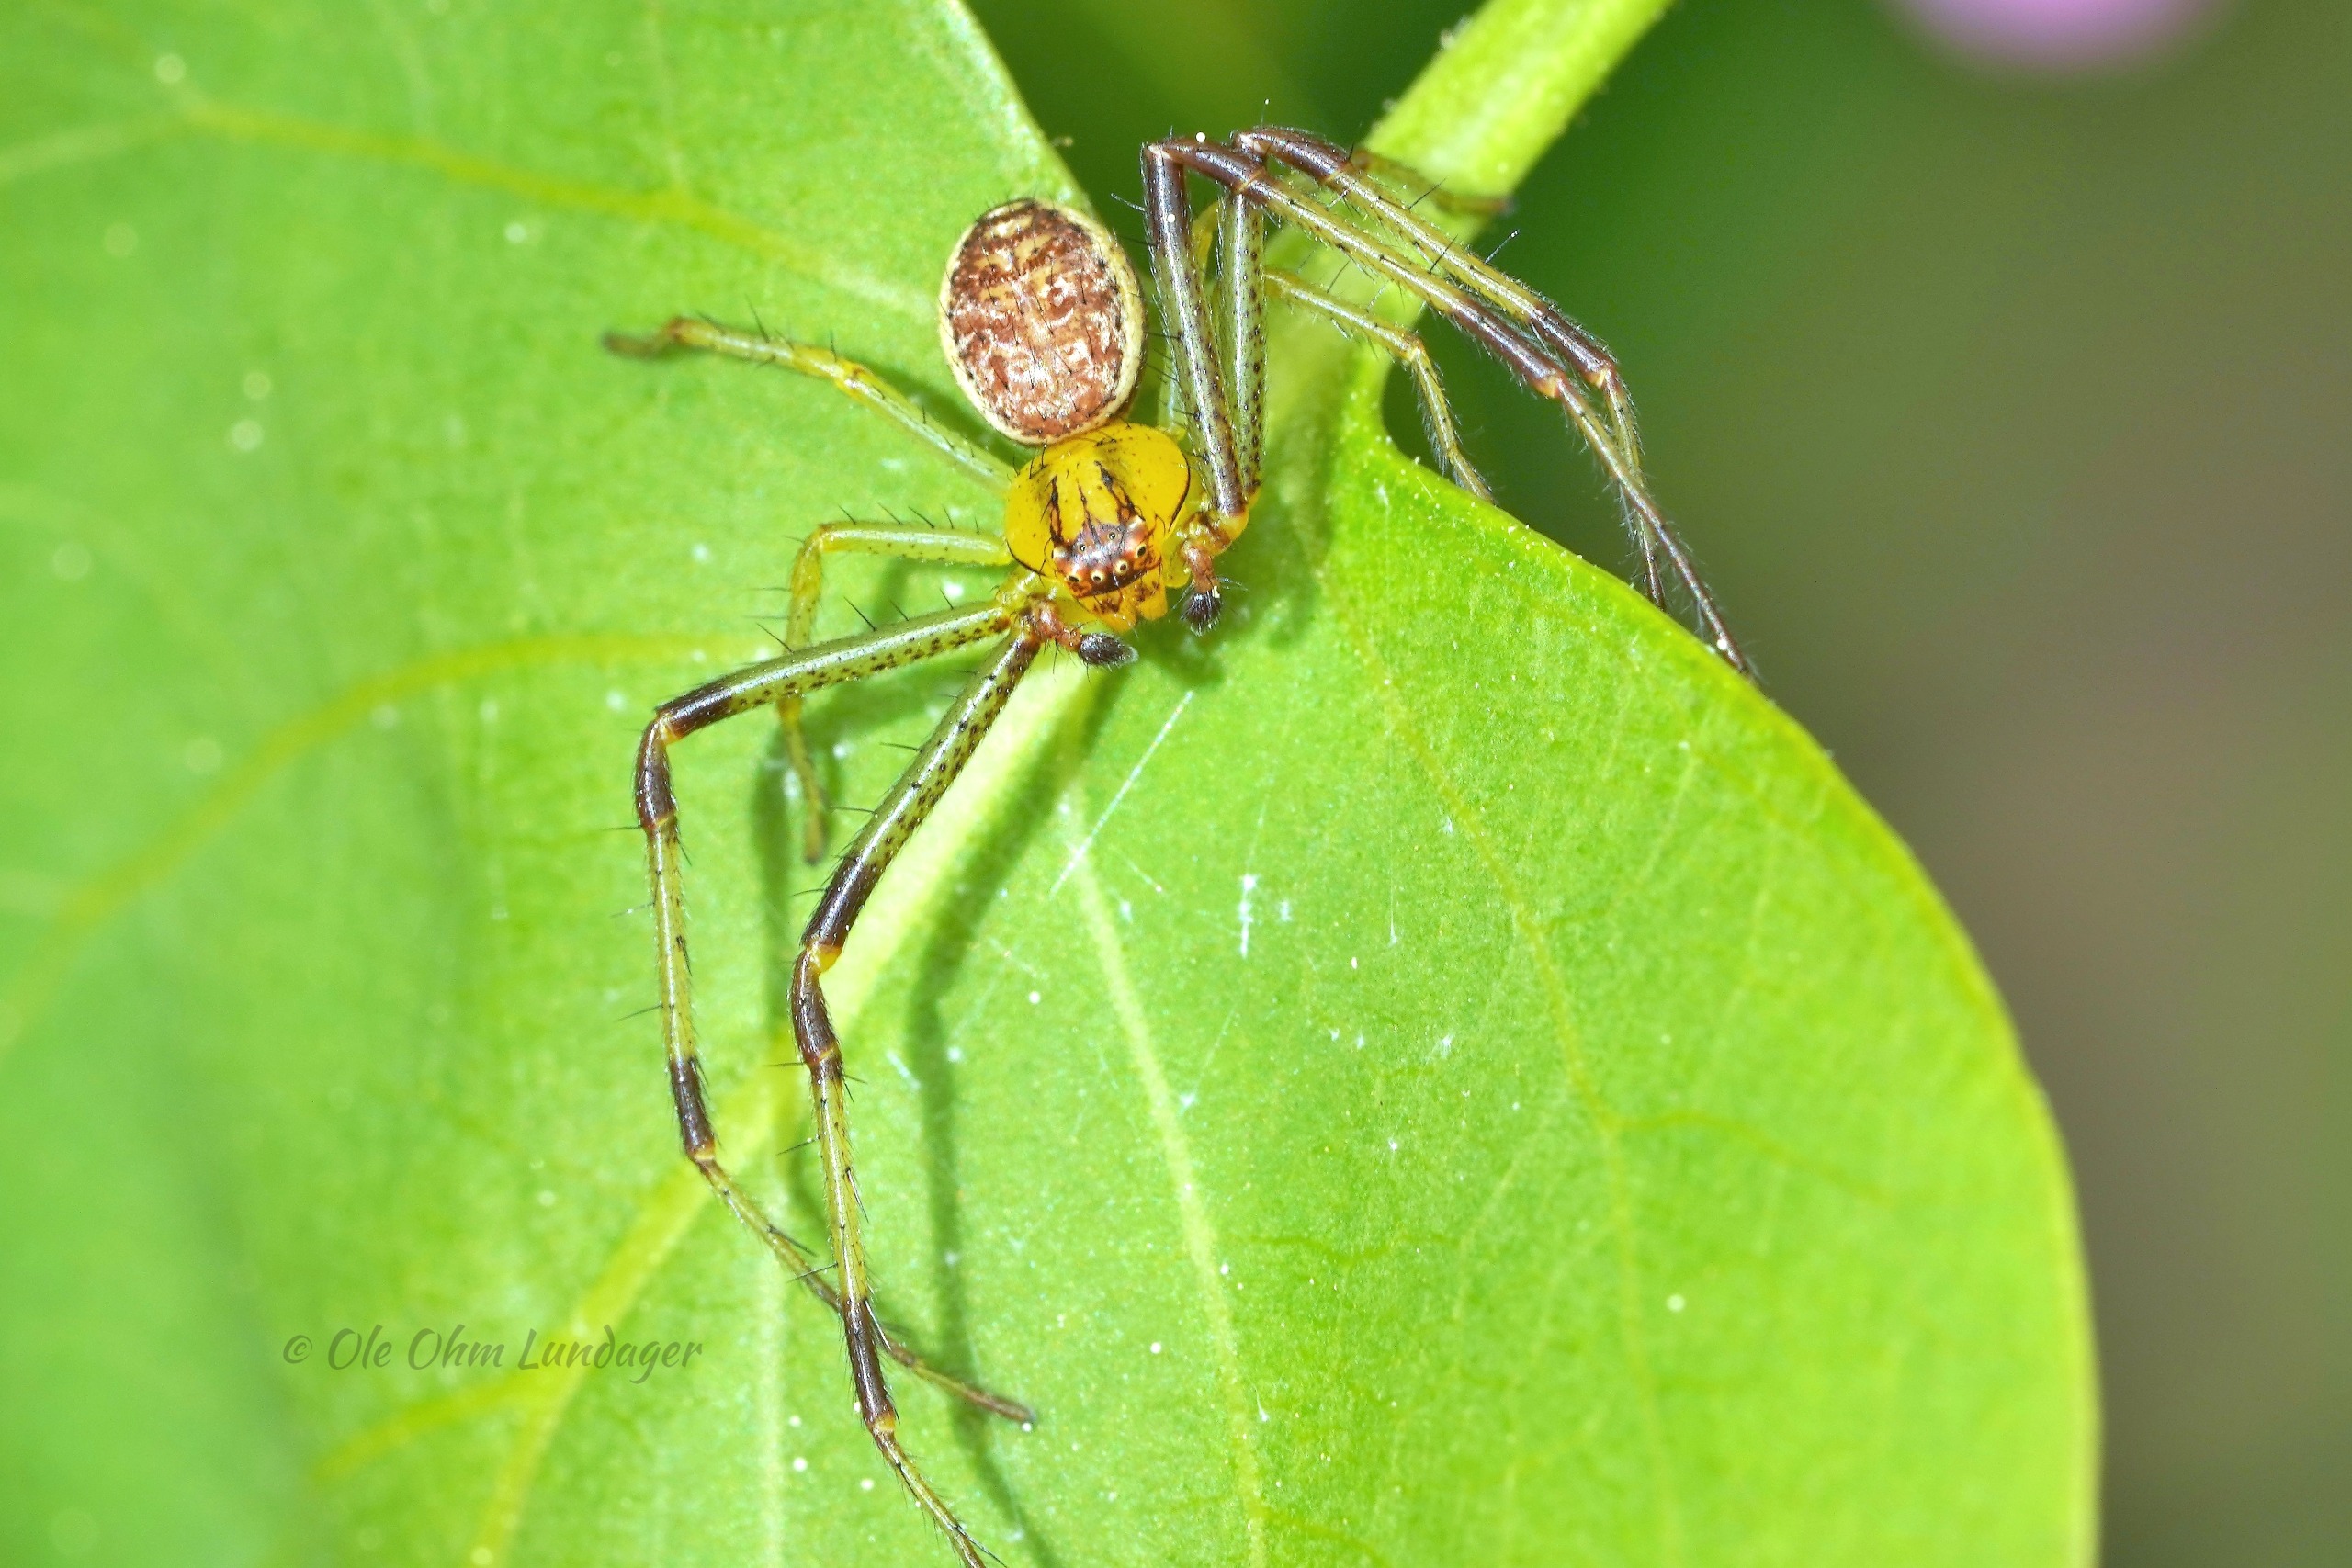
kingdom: Animalia
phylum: Arthropoda
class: Arachnida
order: Araneae
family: Thomisidae
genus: Diaea
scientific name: Diaea dorsata
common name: Grøn krabbeedderkop
